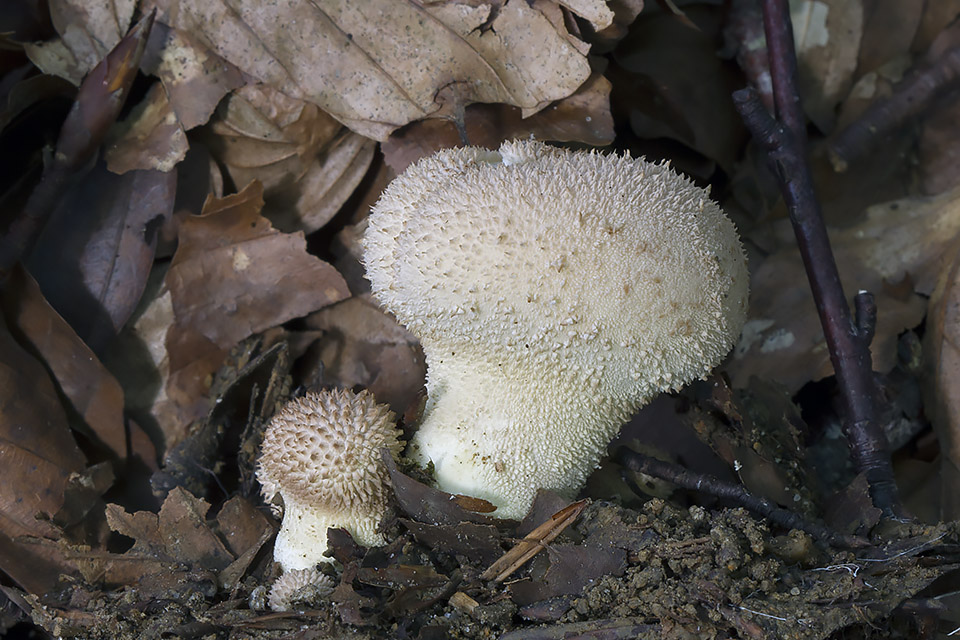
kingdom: Fungi
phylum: Basidiomycota
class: Agaricomycetes
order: Agaricales
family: Lycoperdaceae
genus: Lycoperdon
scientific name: Lycoperdon molle
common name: skov-støvbold
